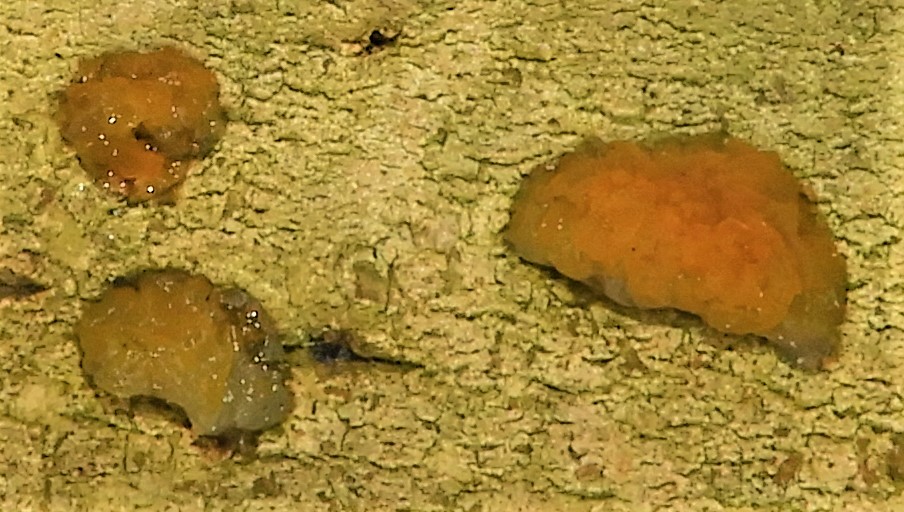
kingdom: Fungi
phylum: Basidiomycota
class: Dacrymycetes
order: Dacrymycetales
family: Dacrymycetaceae
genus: Dacrymyces
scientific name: Dacrymyces lacrymalis
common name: rynket tåresvamp
